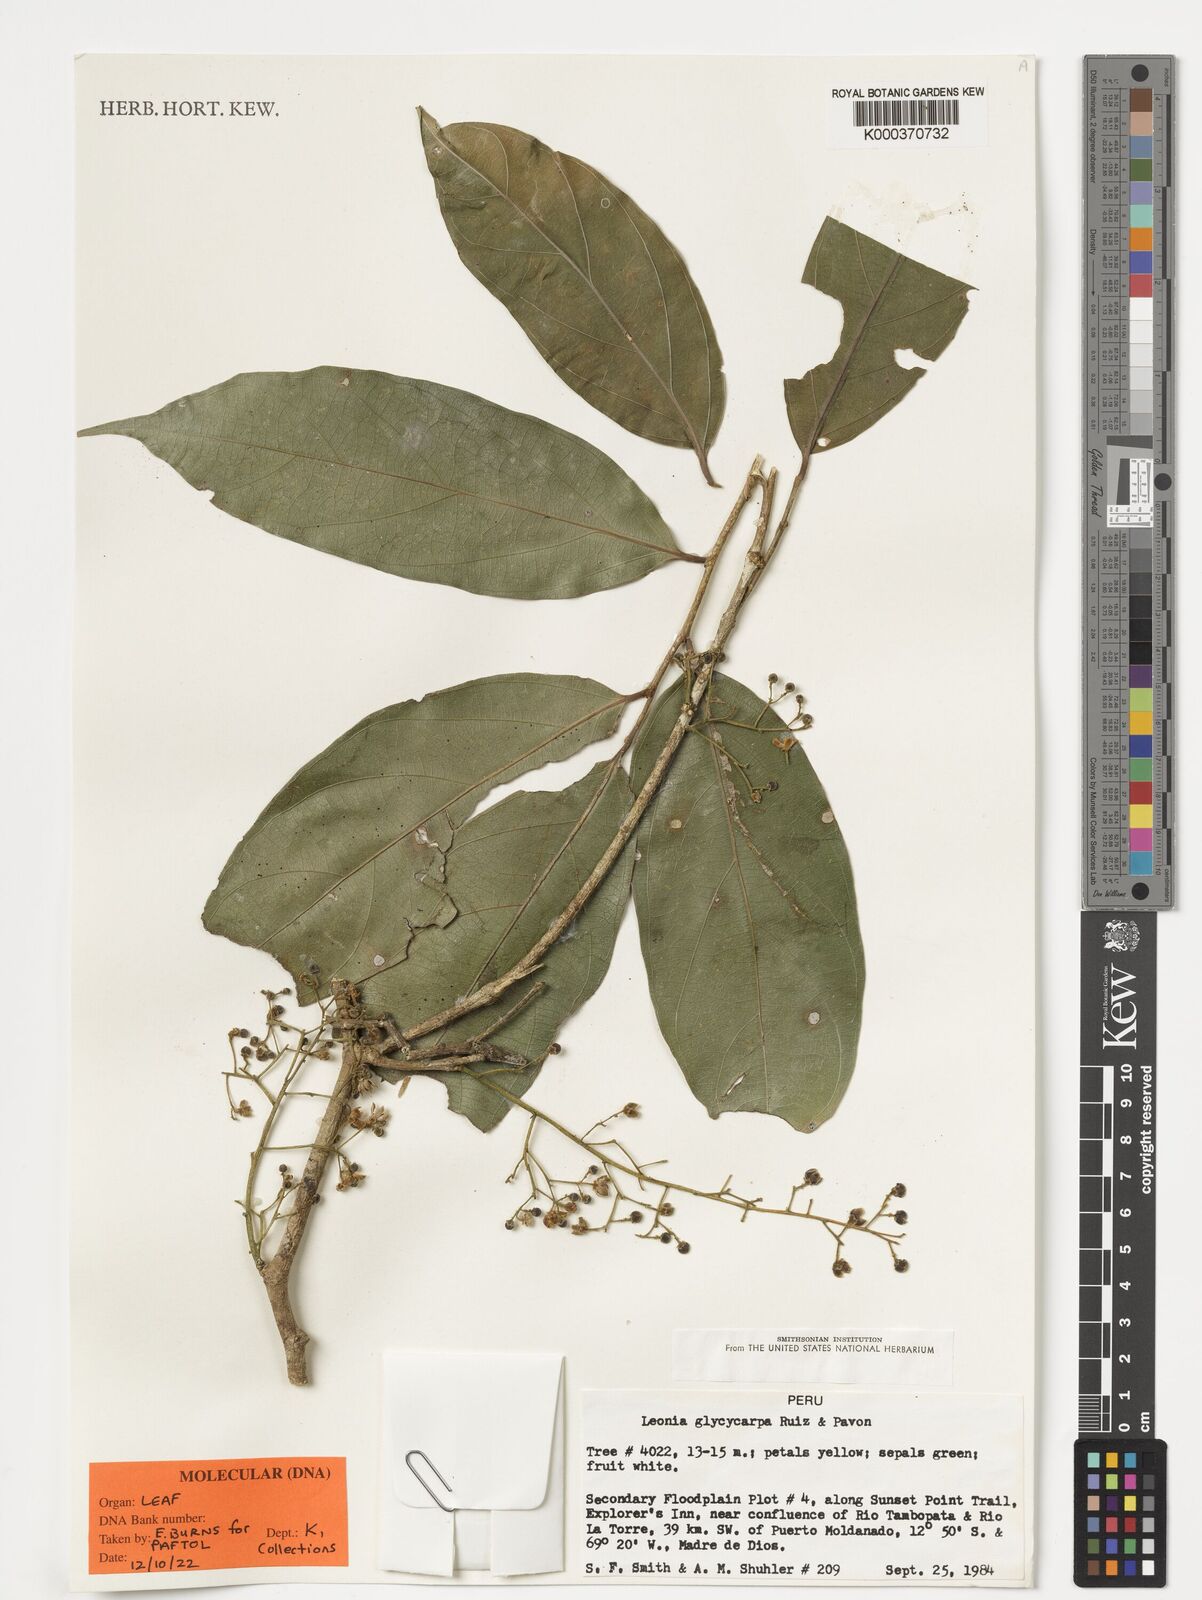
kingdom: Plantae
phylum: Tracheophyta
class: Magnoliopsida
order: Malpighiales
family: Violaceae
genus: Leonia
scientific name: Leonia glycycarpa
